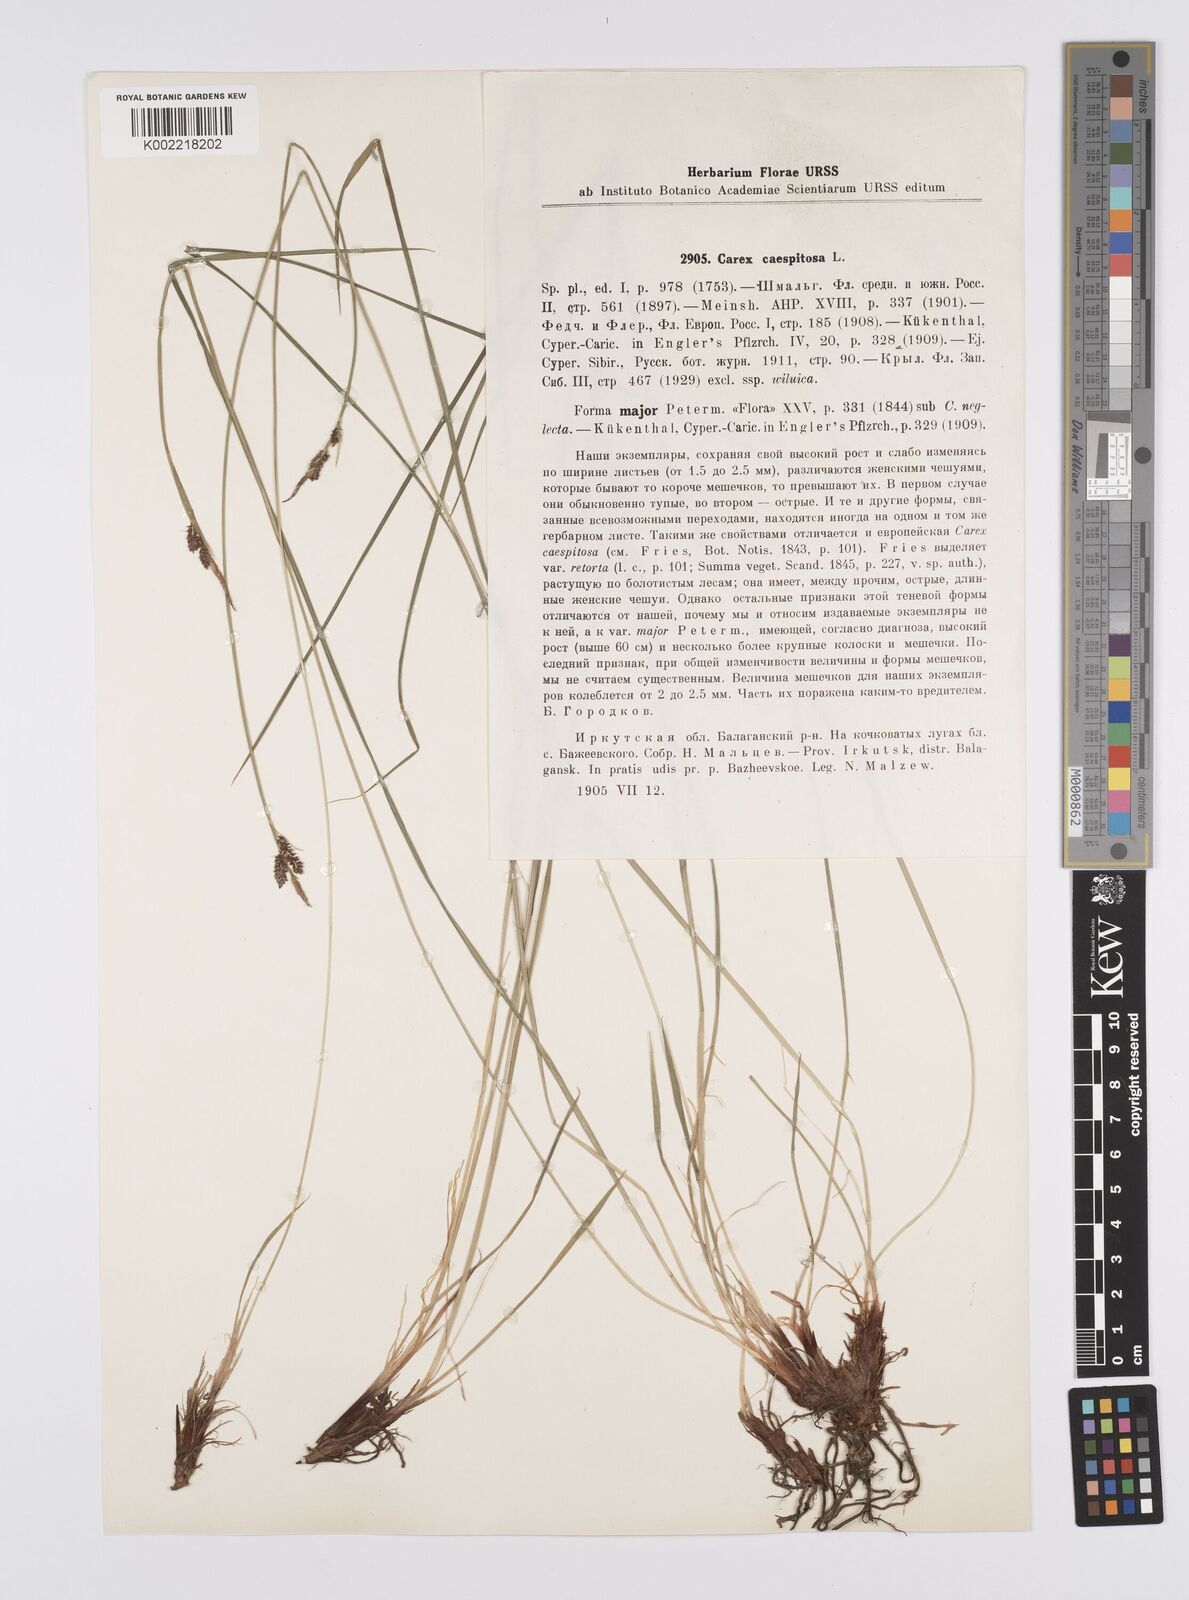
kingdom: Plantae
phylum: Tracheophyta
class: Liliopsida
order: Poales
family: Cyperaceae
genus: Carex
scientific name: Carex
